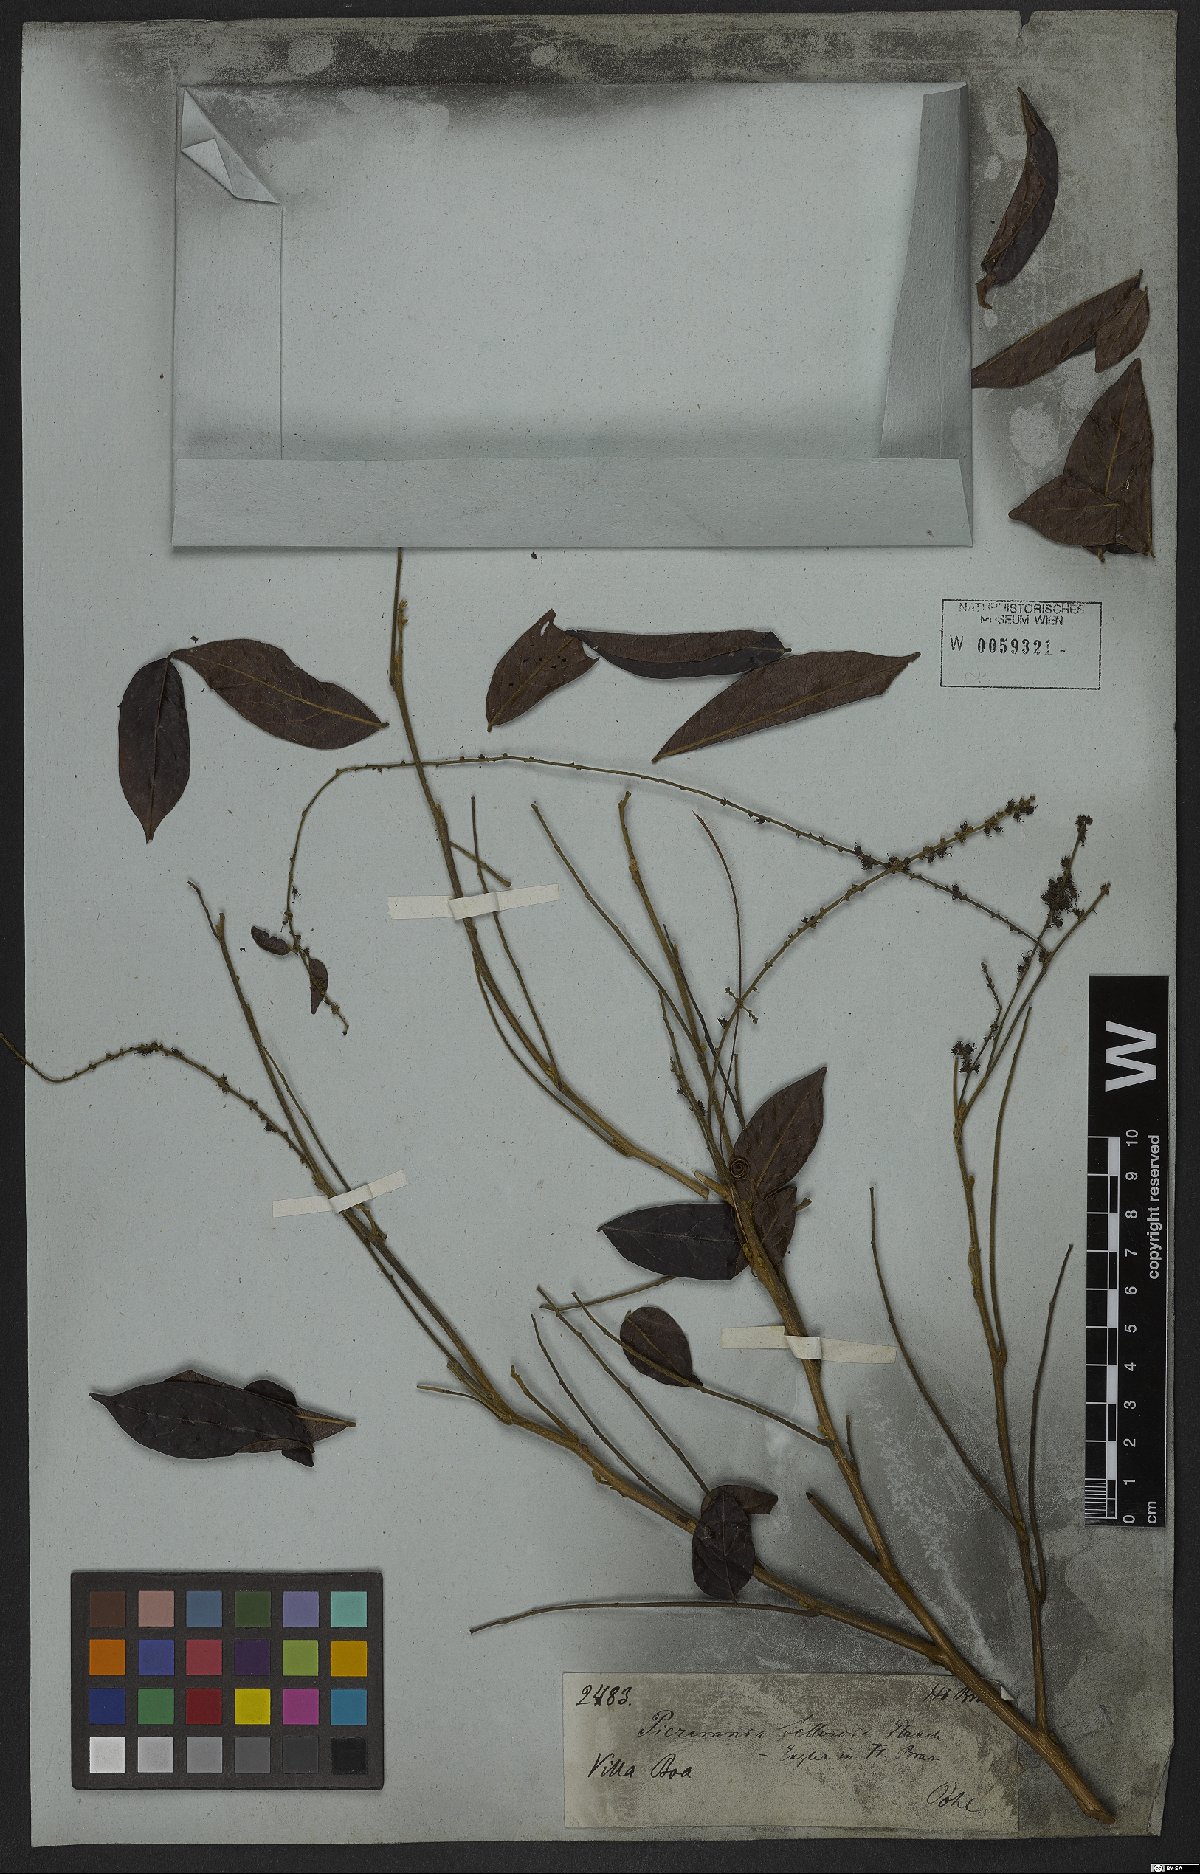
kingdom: Plantae
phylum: Tracheophyta
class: Magnoliopsida
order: Picramniales
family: Picramniaceae
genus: Picramnia
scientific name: Picramnia sellowii
